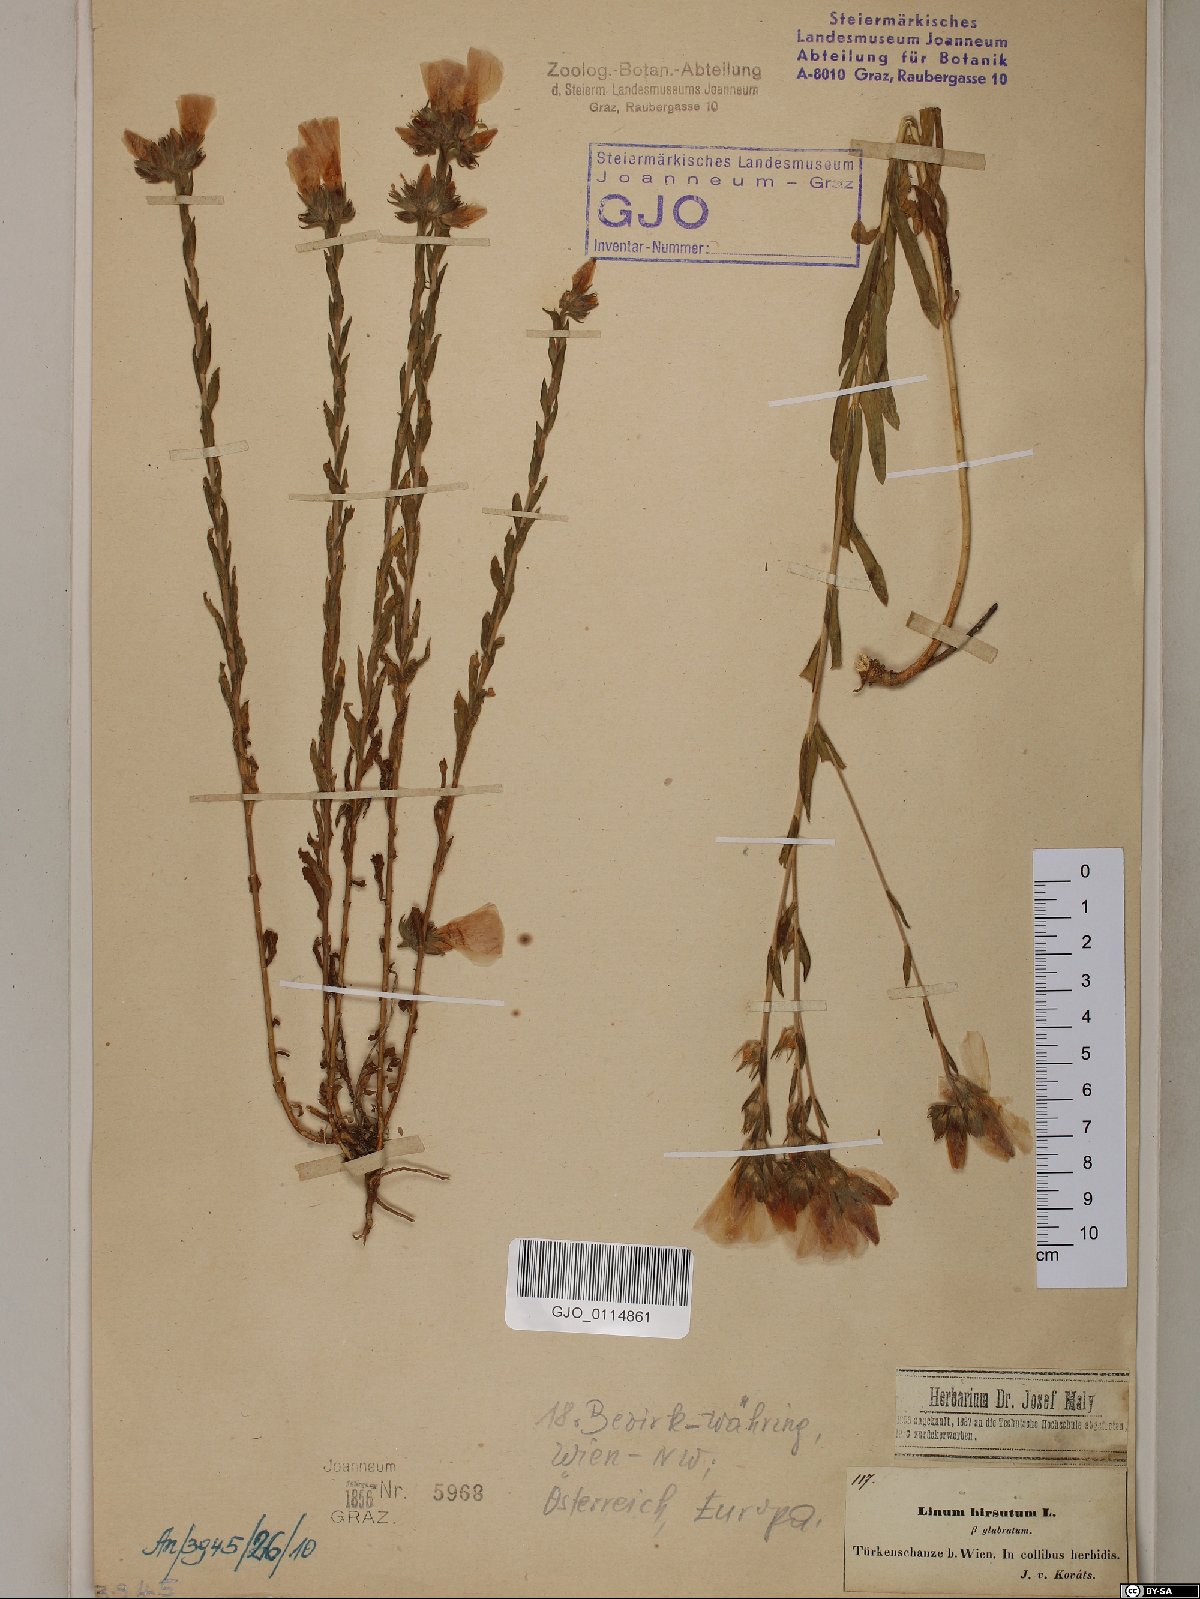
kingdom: Plantae
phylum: Tracheophyta
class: Magnoliopsida
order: Malpighiales
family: Linaceae
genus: Linum
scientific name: Linum hirsutum
